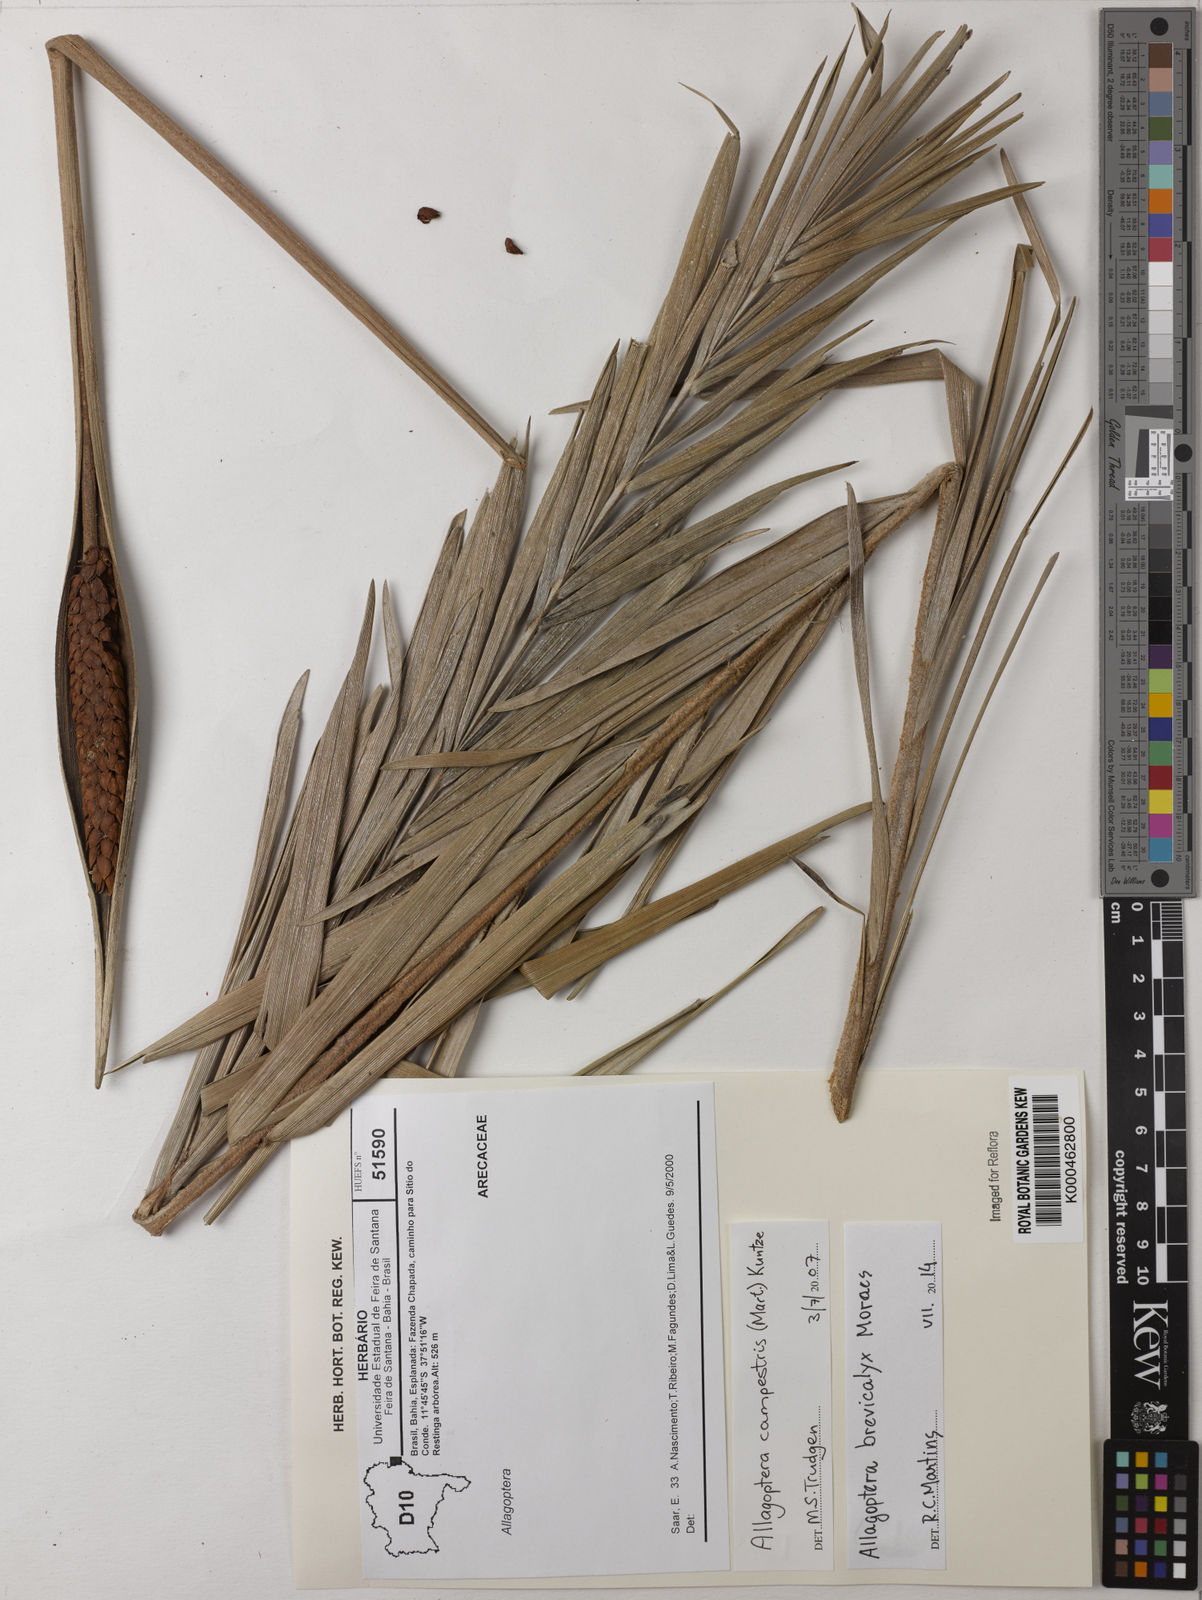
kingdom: Plantae
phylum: Tracheophyta
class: Liliopsida
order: Arecales
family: Arecaceae
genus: Allagoptera
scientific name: Allagoptera campestris
